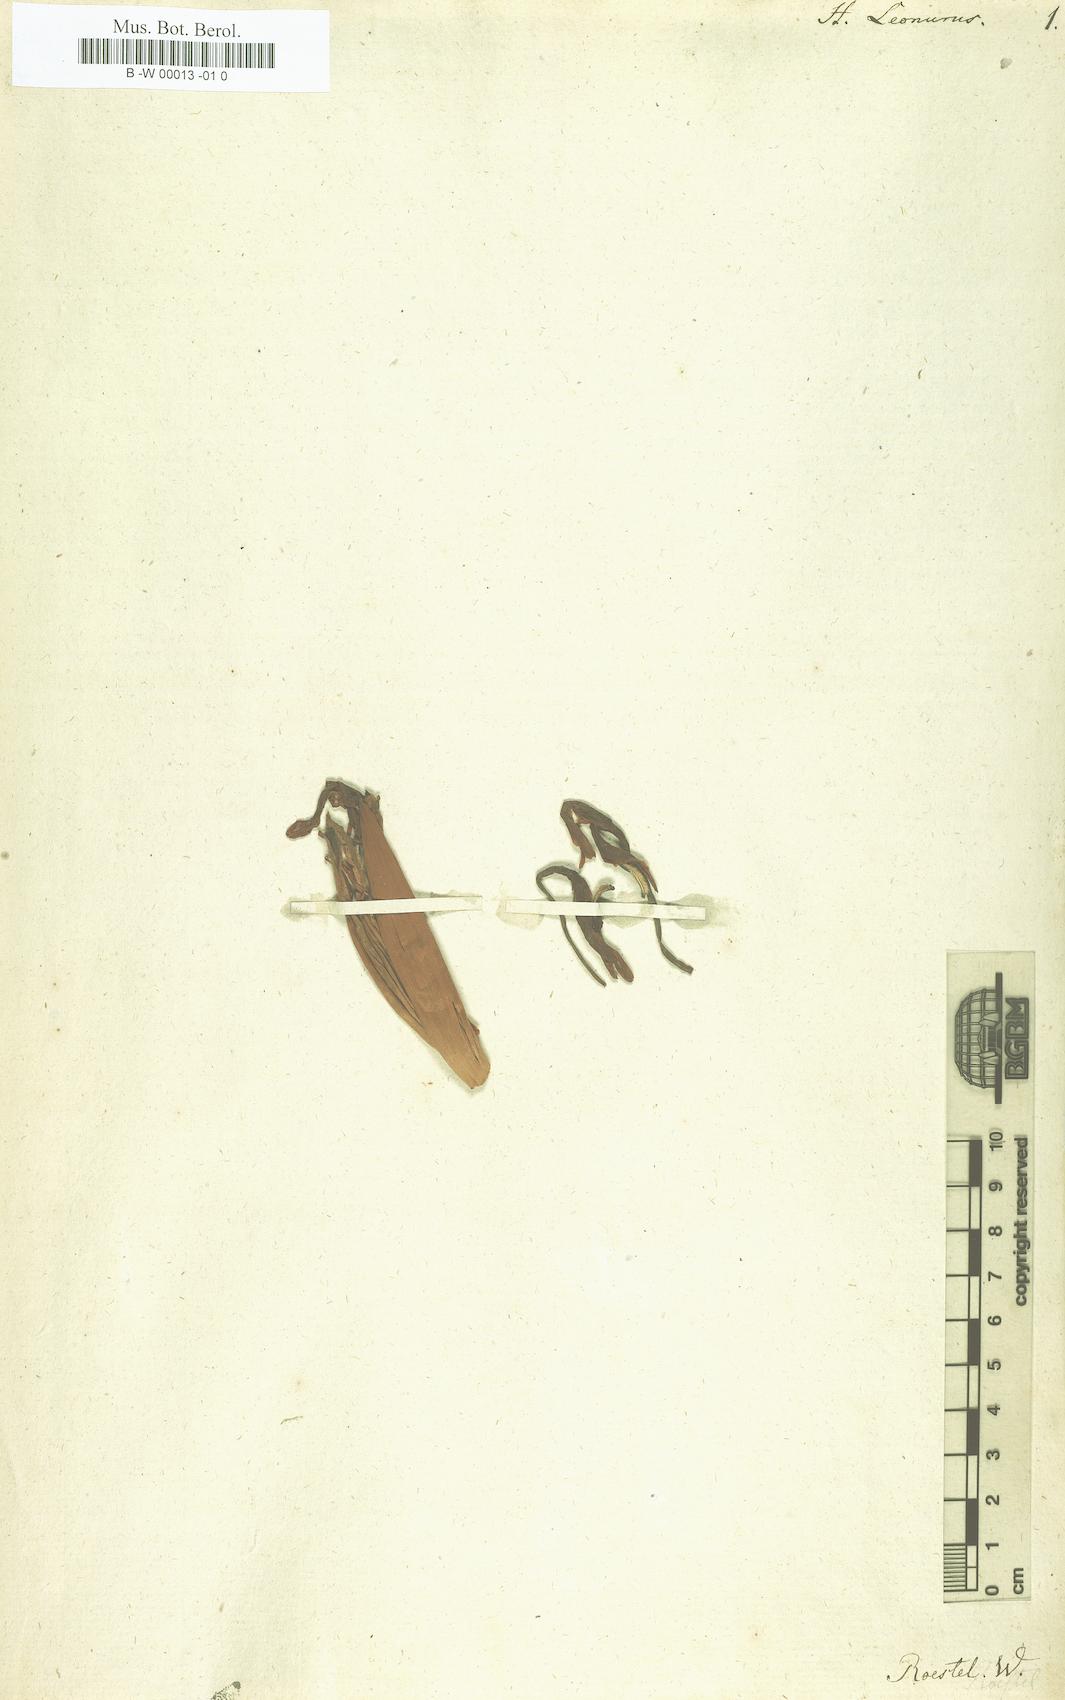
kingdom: Plantae
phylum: Tracheophyta
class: Liliopsida
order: Zingiberales
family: Zingiberaceae
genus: Hornstedtia
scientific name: Hornstedtia leonurus
